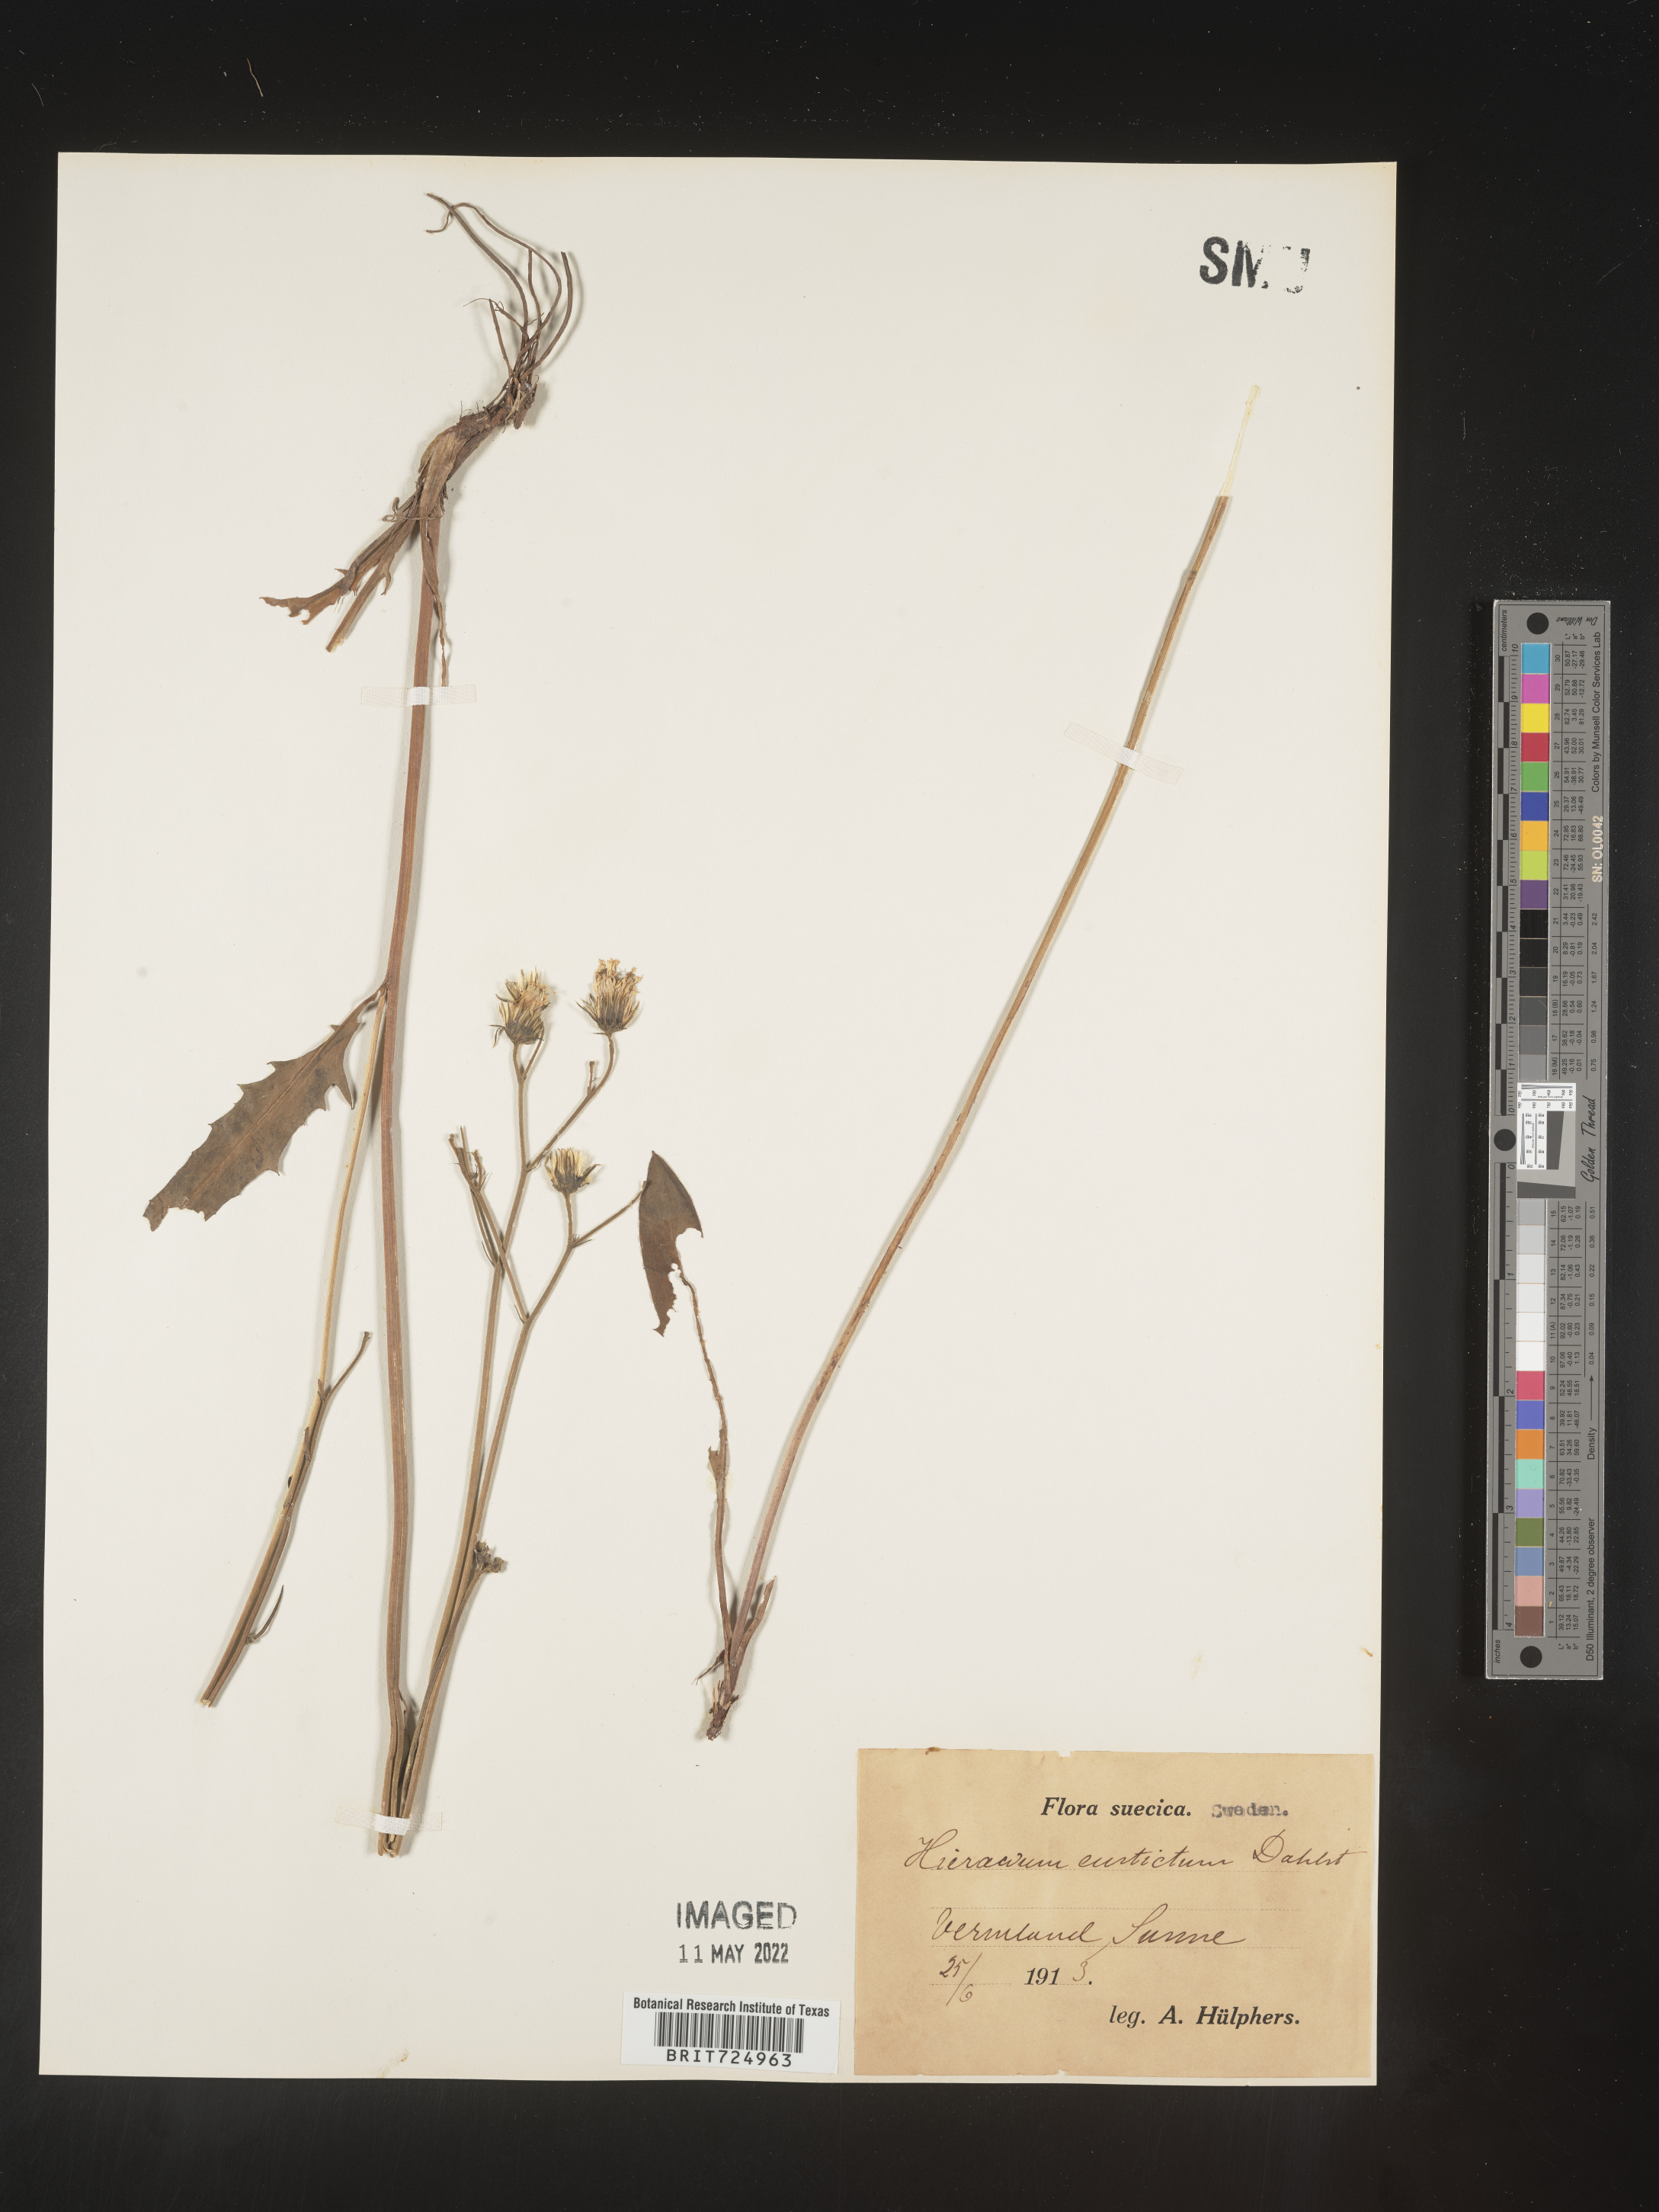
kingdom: Plantae
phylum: Tracheophyta
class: Magnoliopsida
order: Asterales
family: Asteraceae
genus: Hieracium
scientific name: Hieracium
